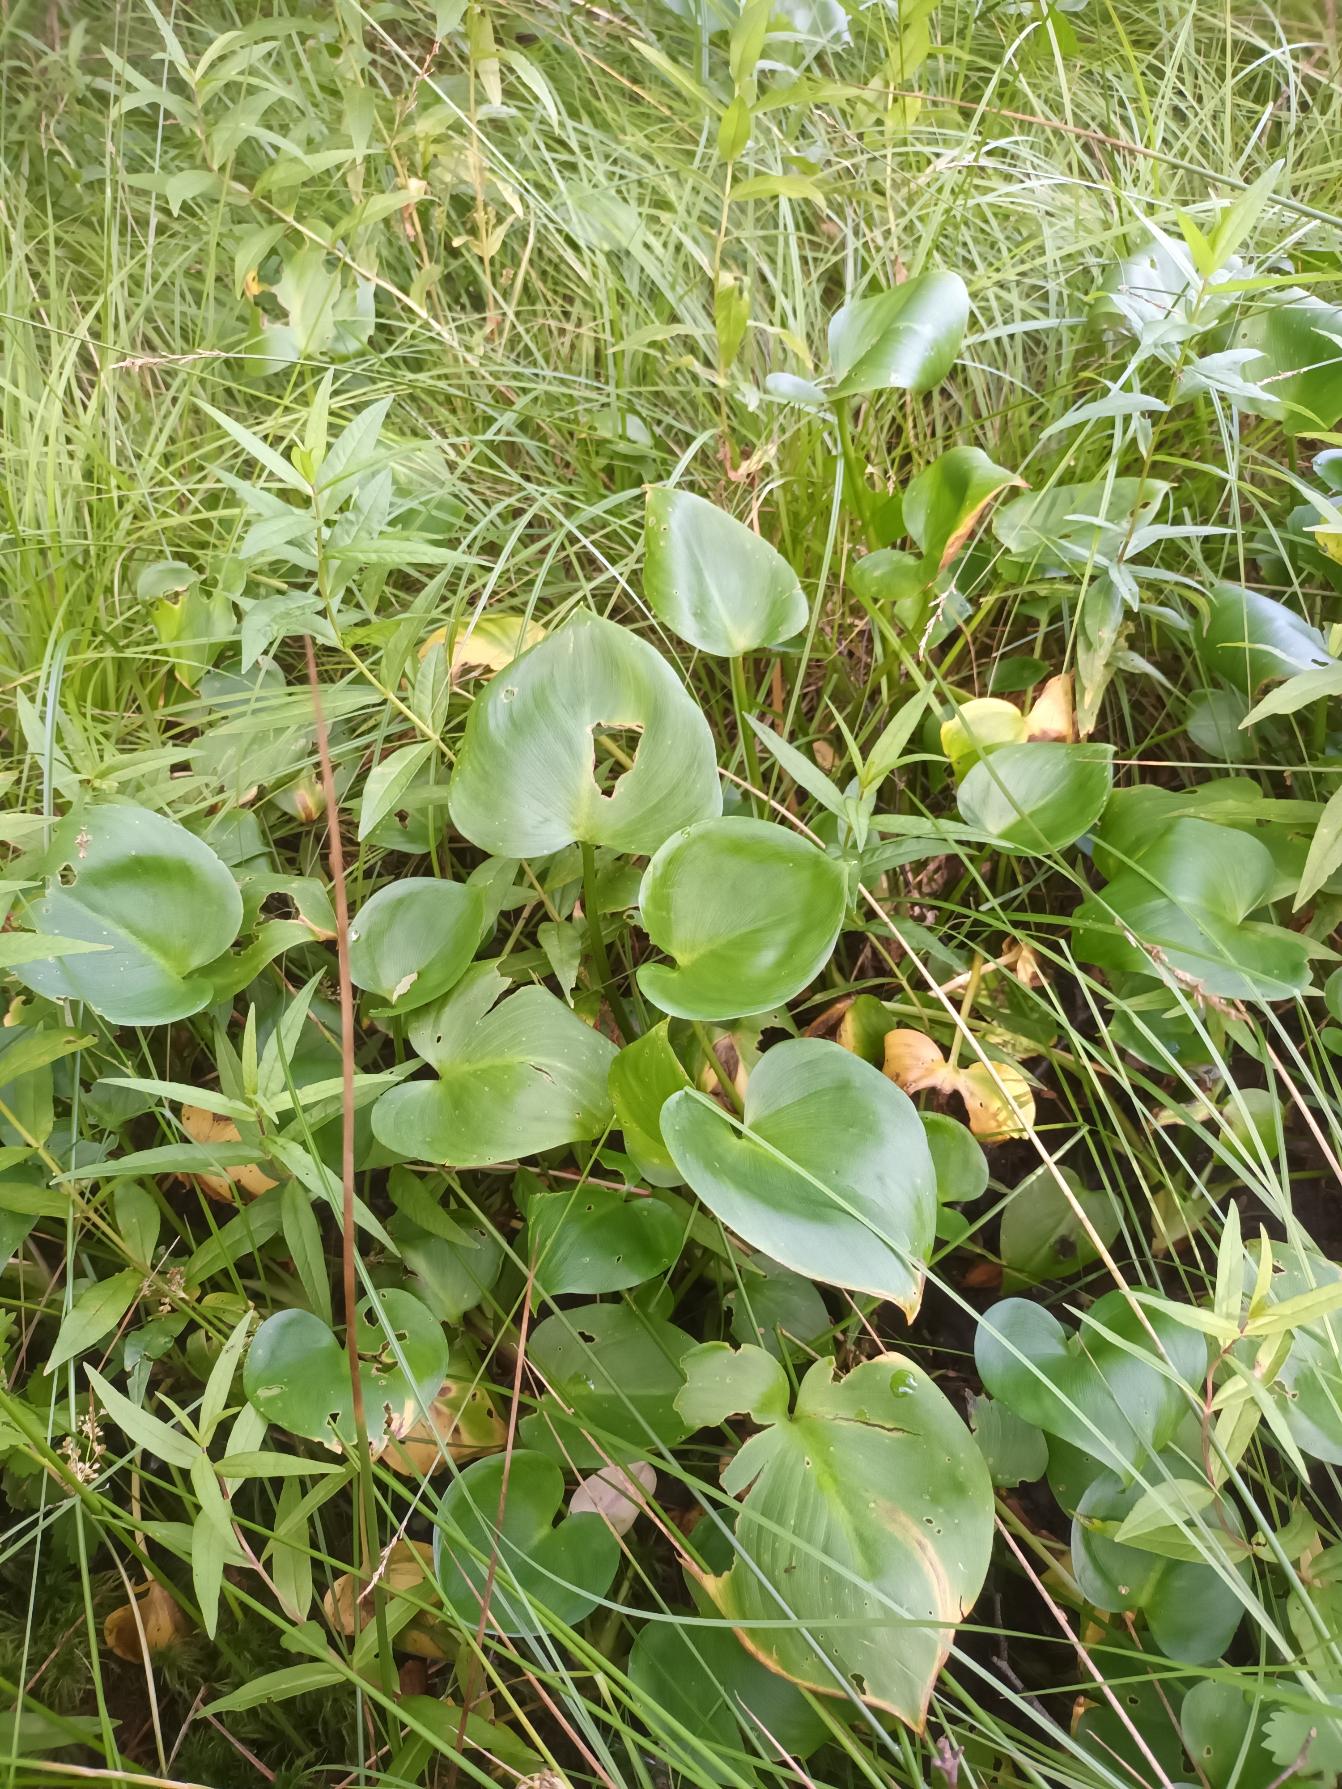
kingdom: Plantae
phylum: Tracheophyta
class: Liliopsida
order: Alismatales
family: Araceae
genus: Calla
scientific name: Calla palustris
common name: Kærmysse
